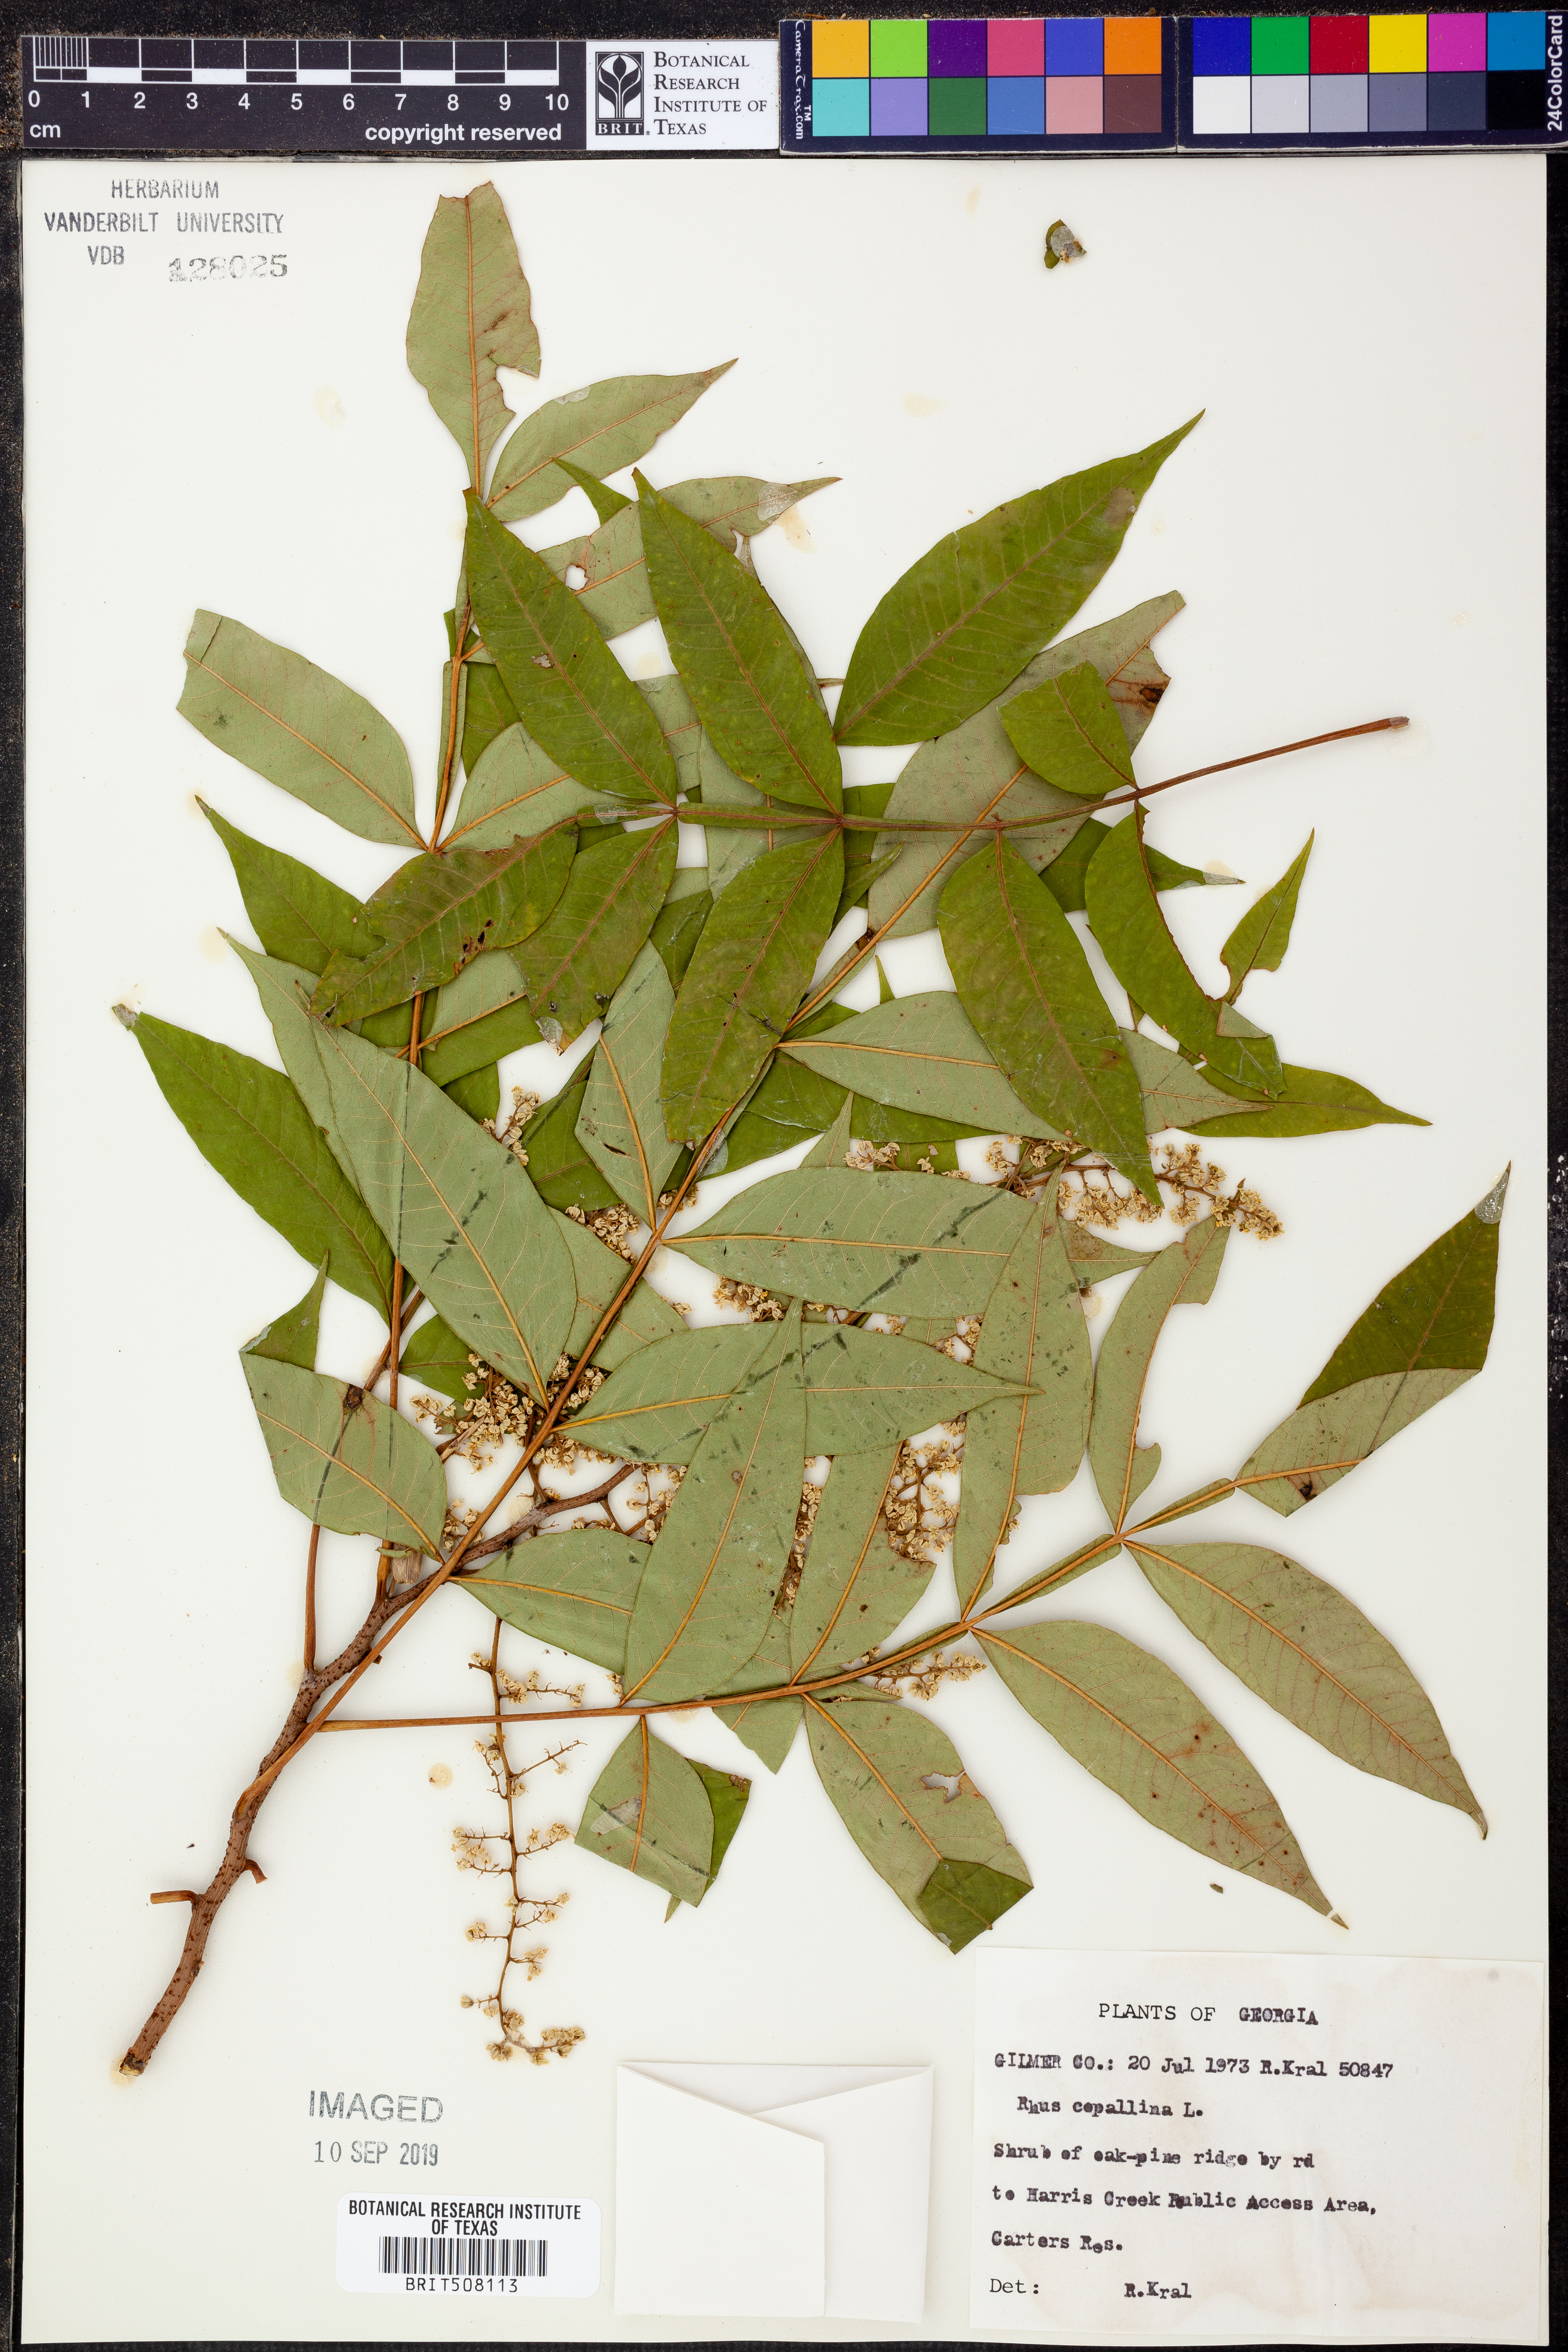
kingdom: Plantae
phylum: Tracheophyta
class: Magnoliopsida
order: Sapindales
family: Anacardiaceae
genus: Rhus
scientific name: Rhus copallina
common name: Shining sumac
